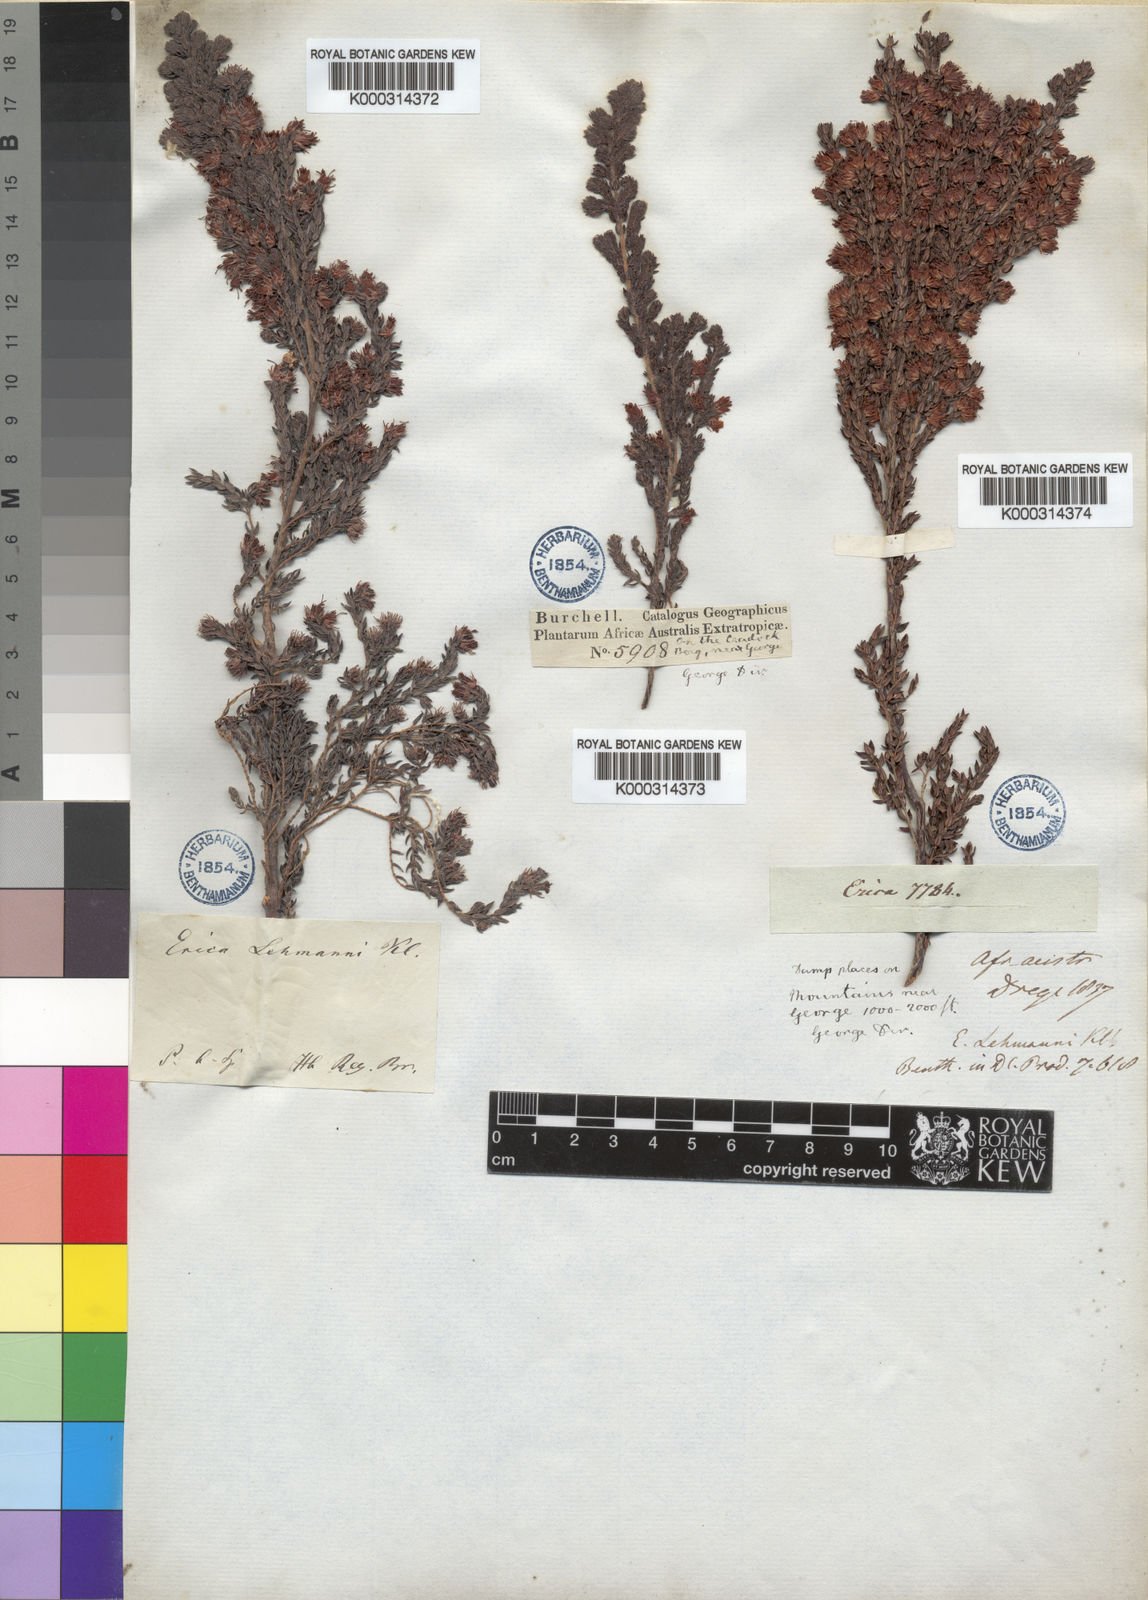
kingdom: Plantae
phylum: Tracheophyta
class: Magnoliopsida
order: Ericales
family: Ericaceae
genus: Erica
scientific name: Erica lehmannii
